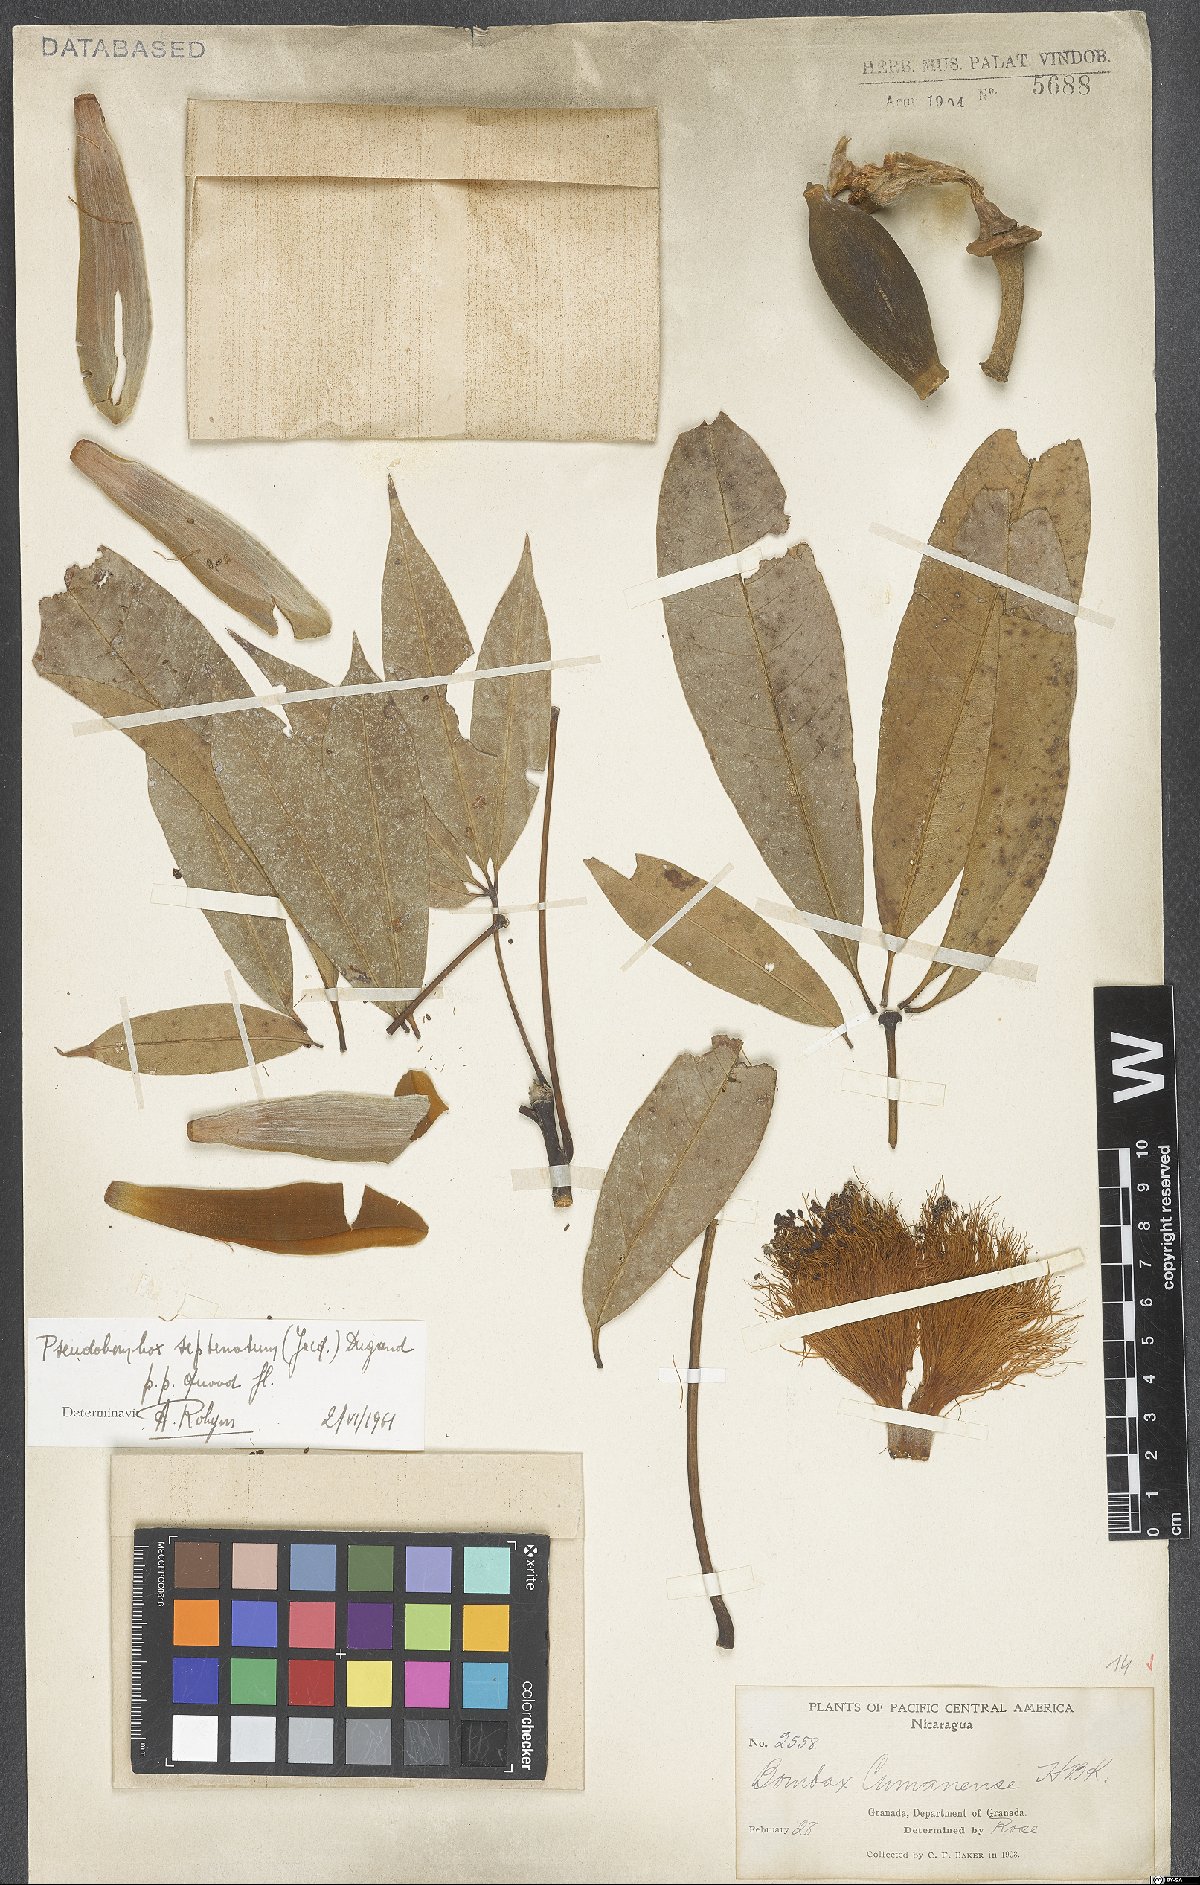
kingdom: Plantae
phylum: Tracheophyta
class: Magnoliopsida
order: Malvales
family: Malvaceae
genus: Pseudobombax
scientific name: Pseudobombax septenatum
